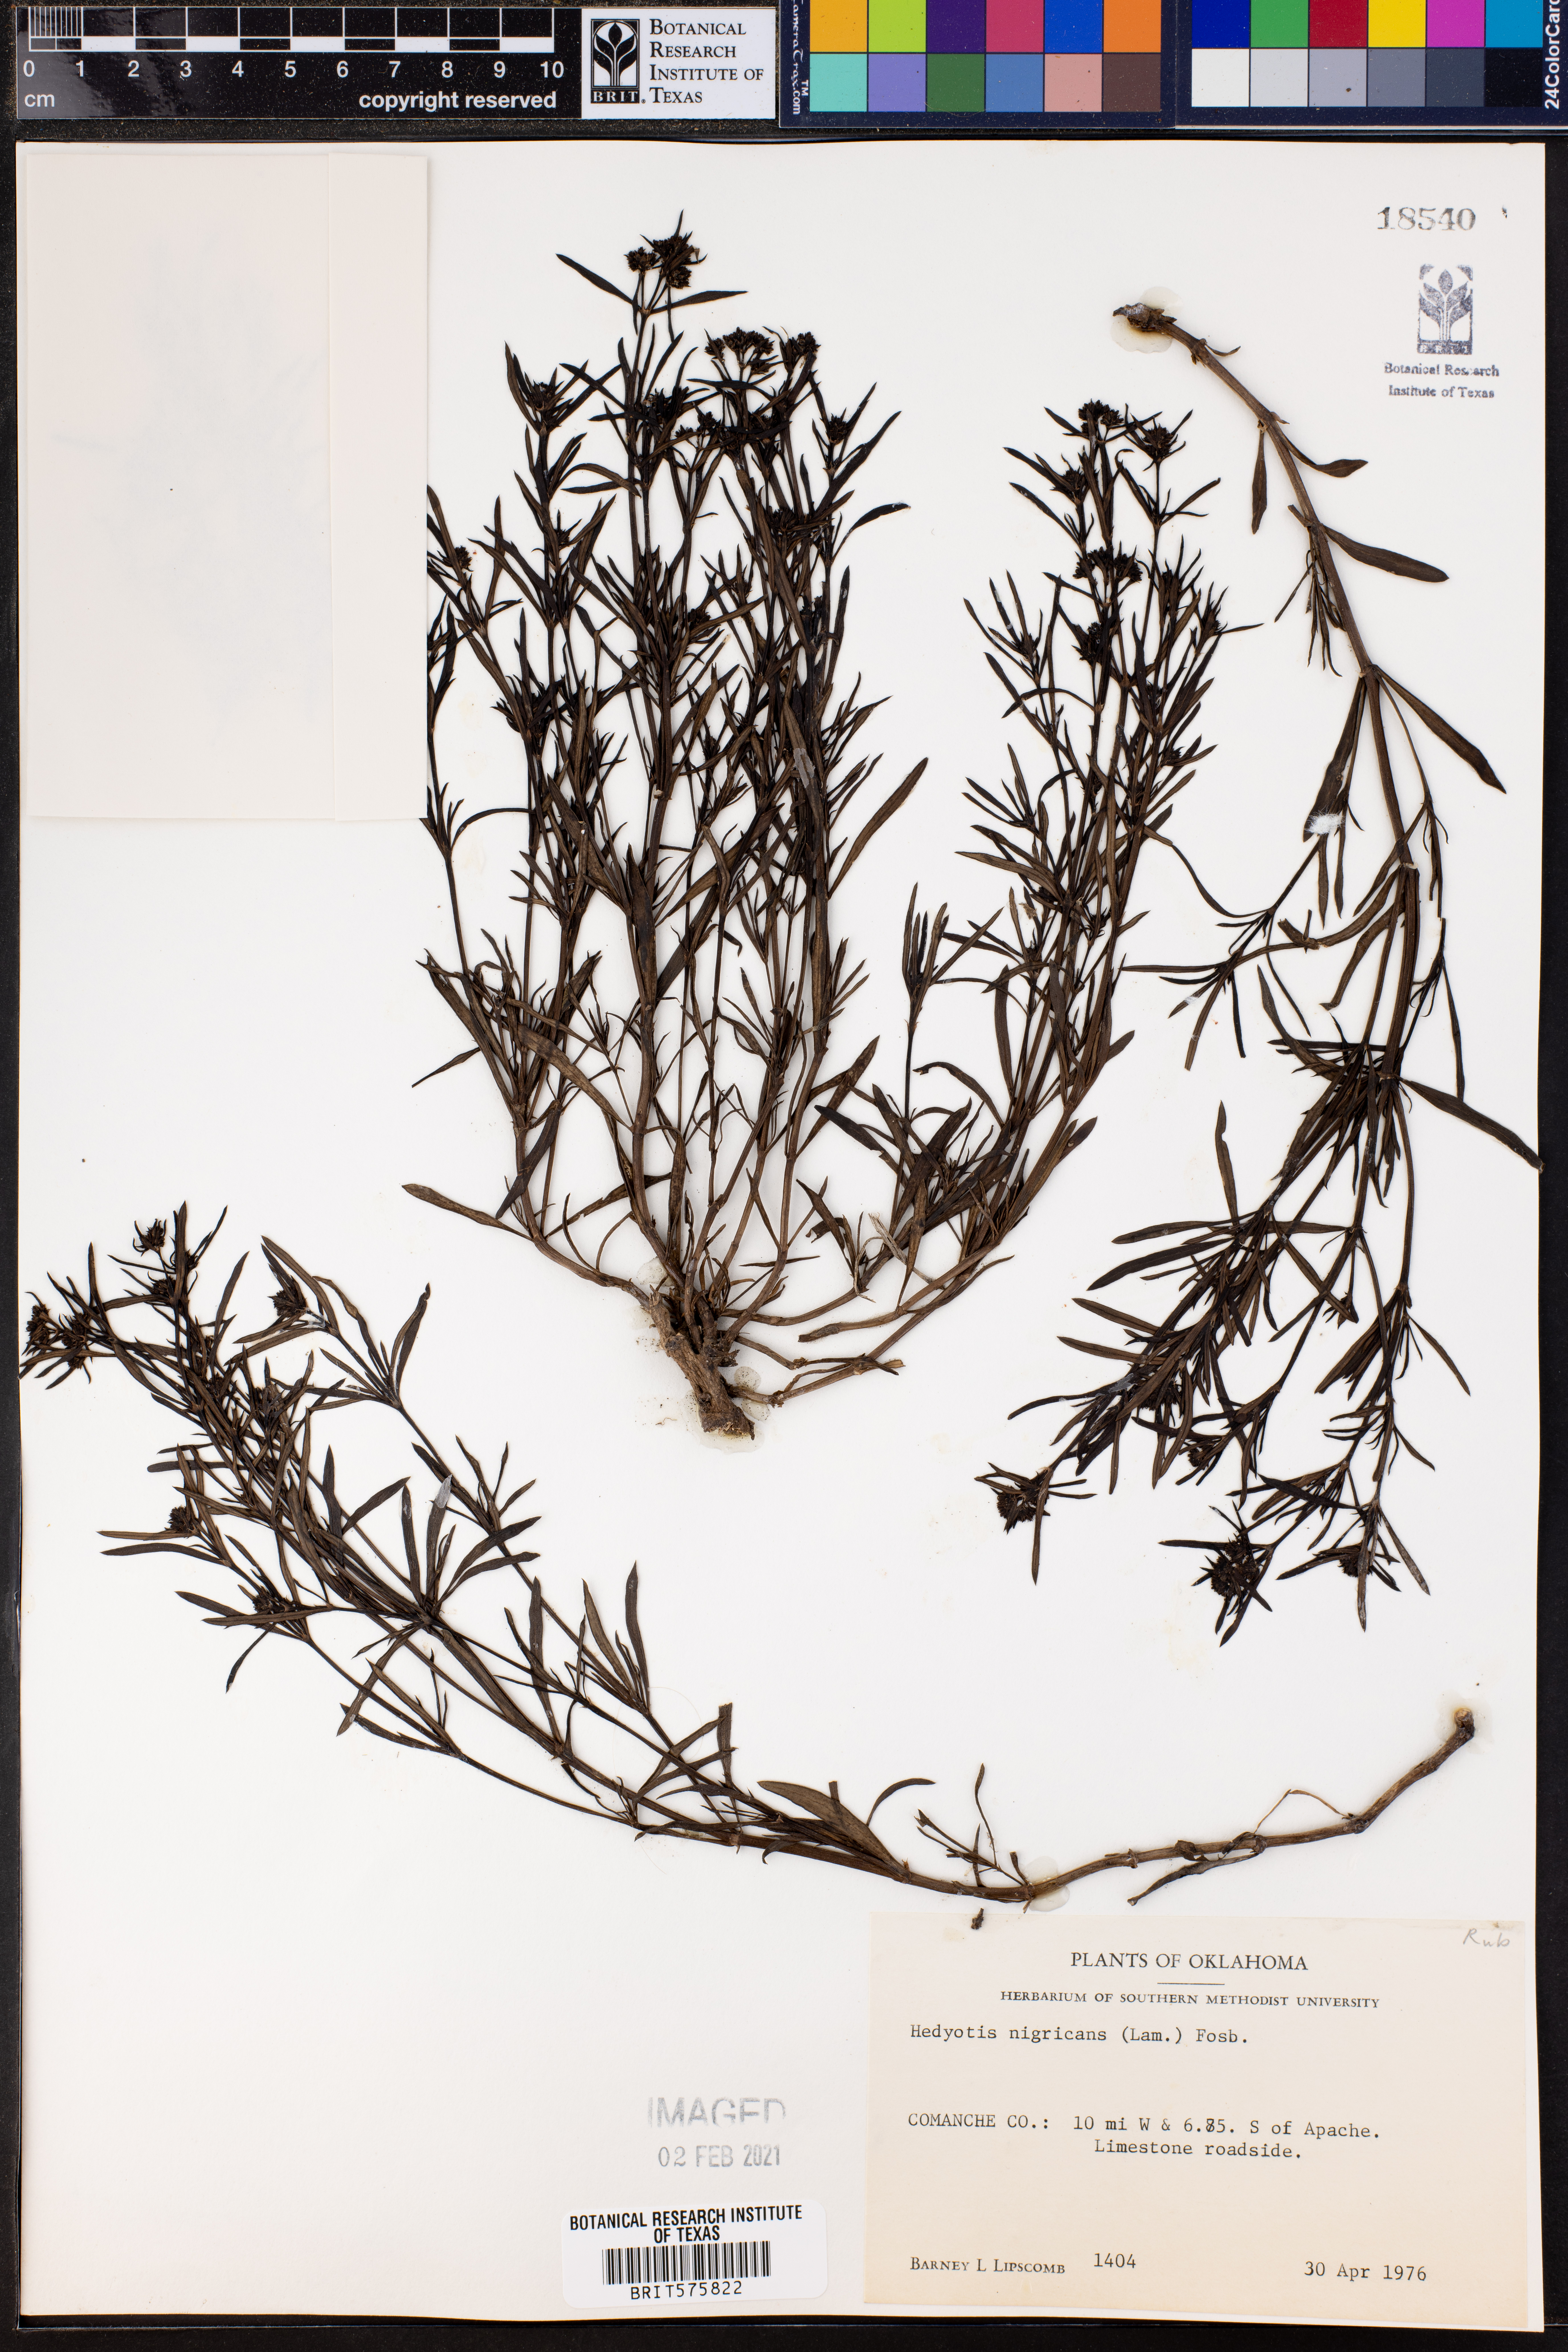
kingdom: Plantae
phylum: Tracheophyta
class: Magnoliopsida
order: Gentianales
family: Rubiaceae
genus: Stenaria
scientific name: Stenaria nigricans
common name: Diamondflowers
